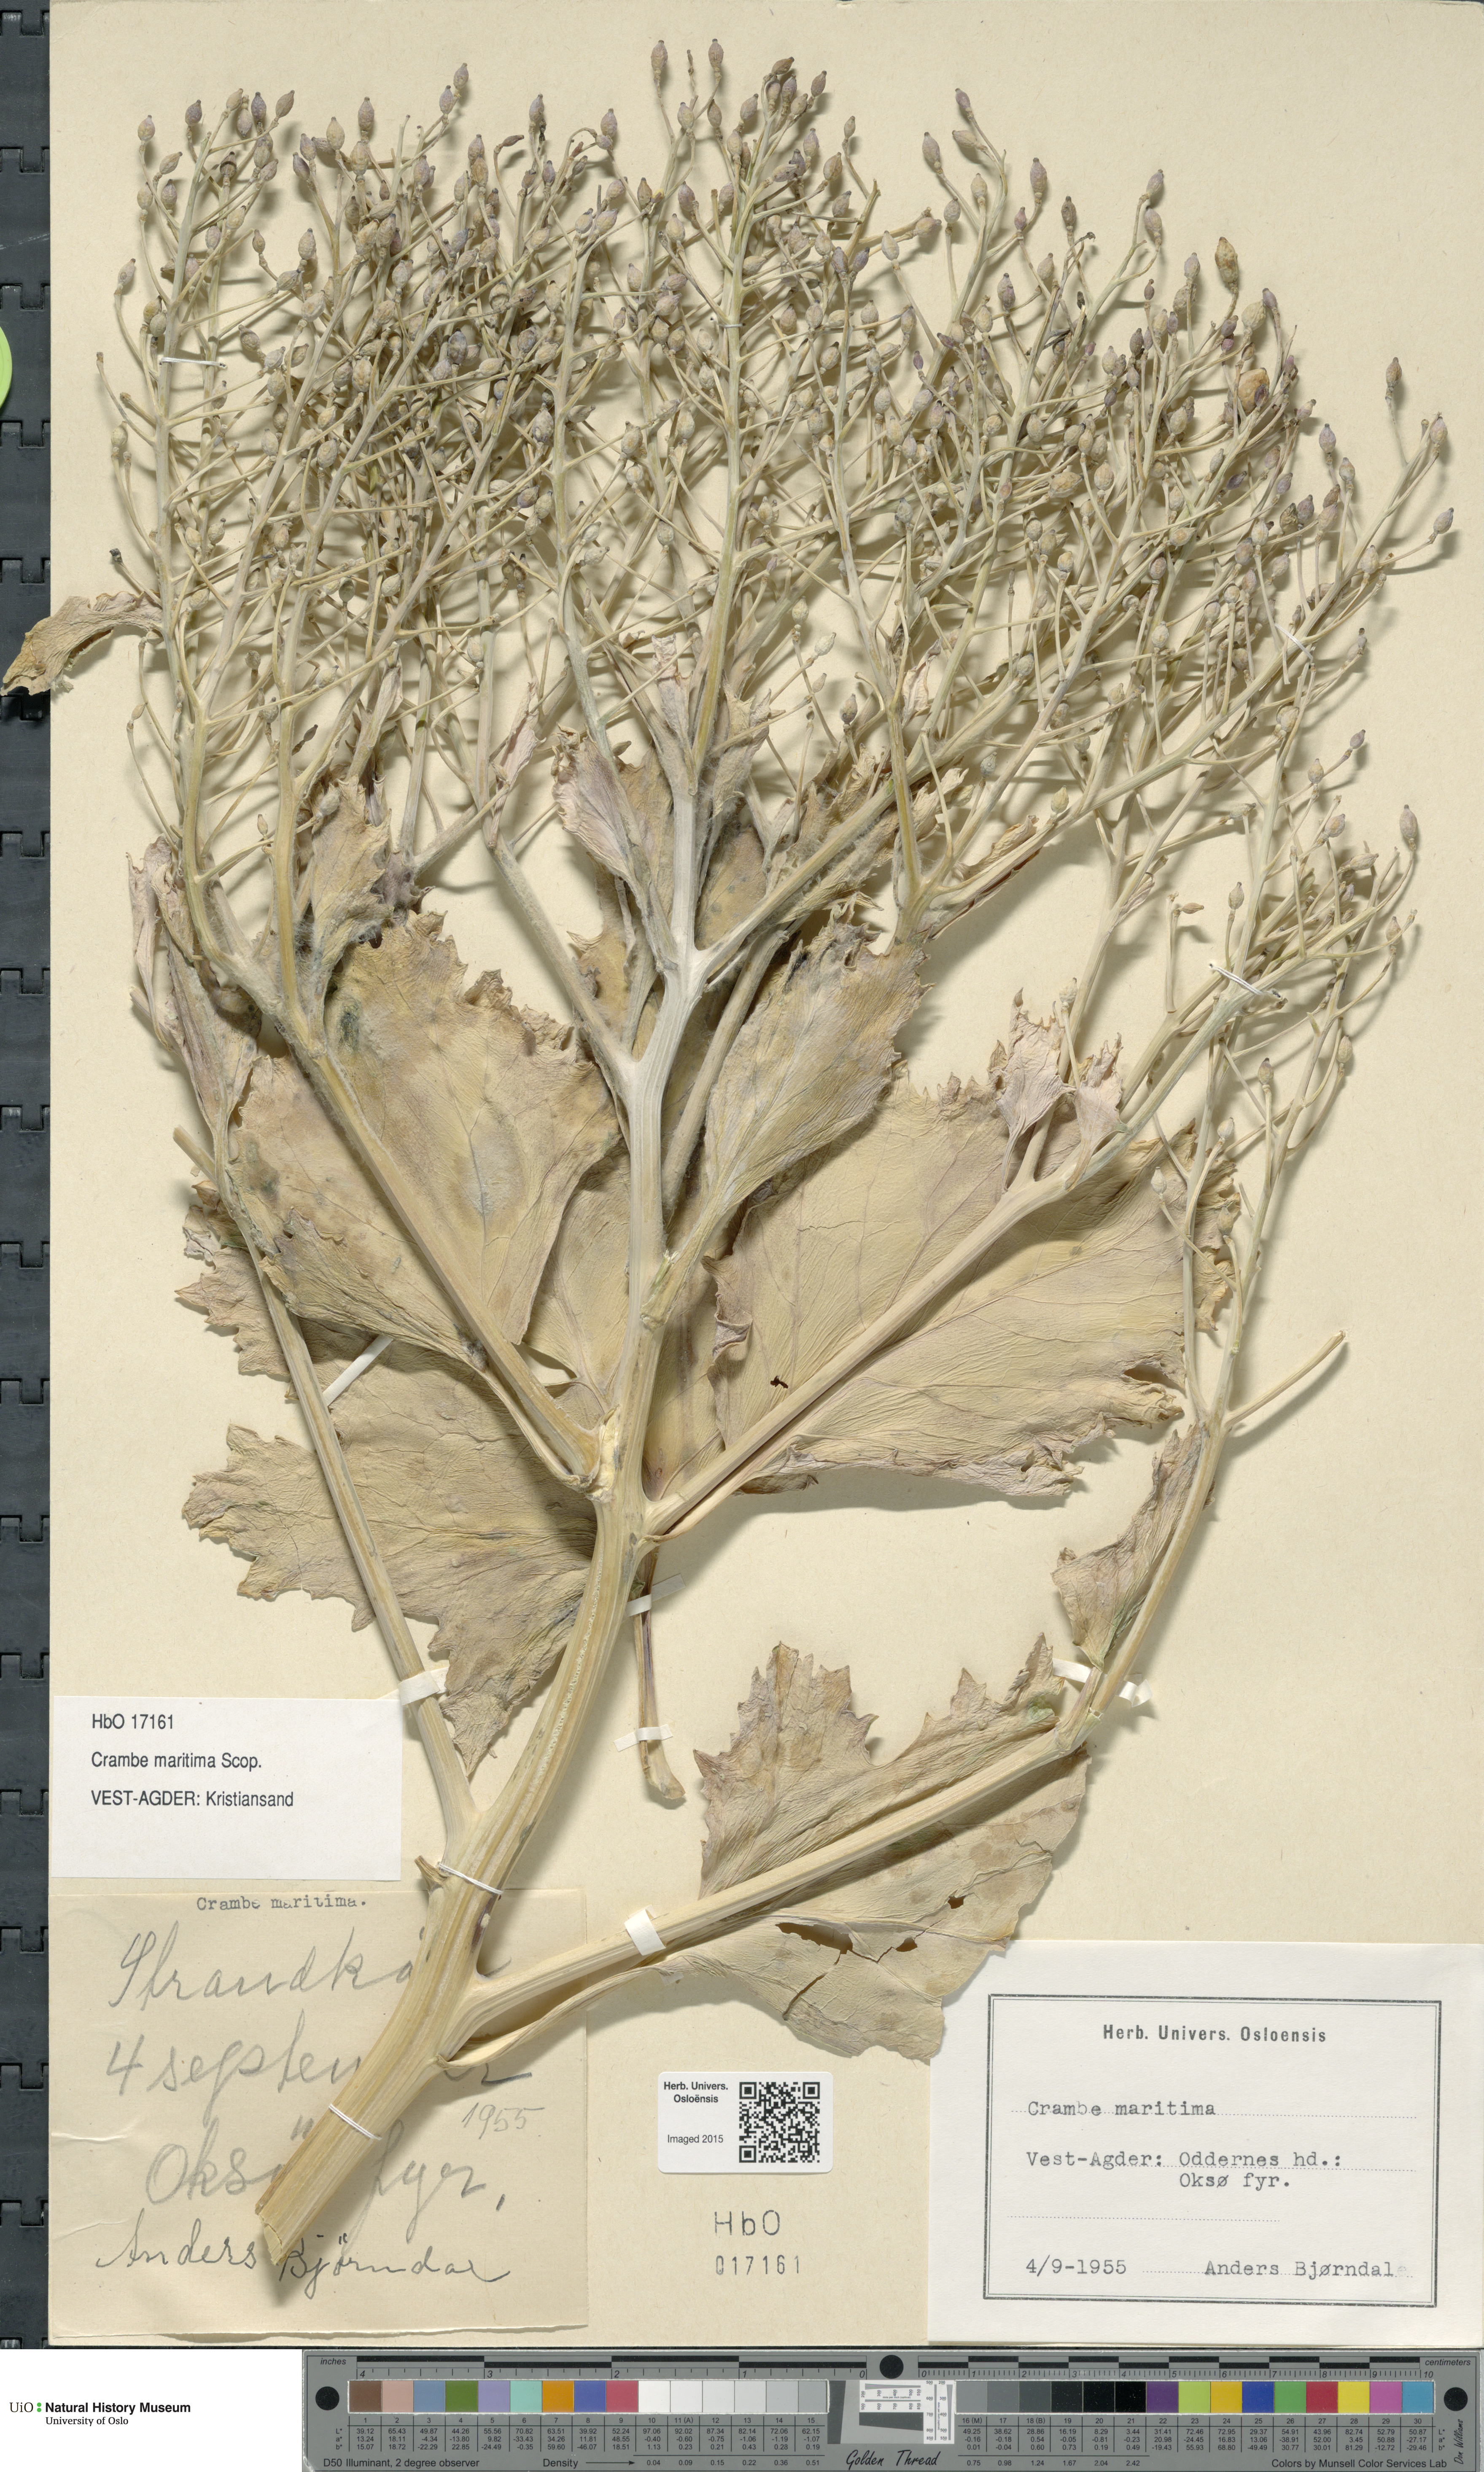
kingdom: Plantae
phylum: Tracheophyta
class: Magnoliopsida
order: Brassicales
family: Brassicaceae
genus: Crambe
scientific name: Crambe maritima
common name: Sea-kale
